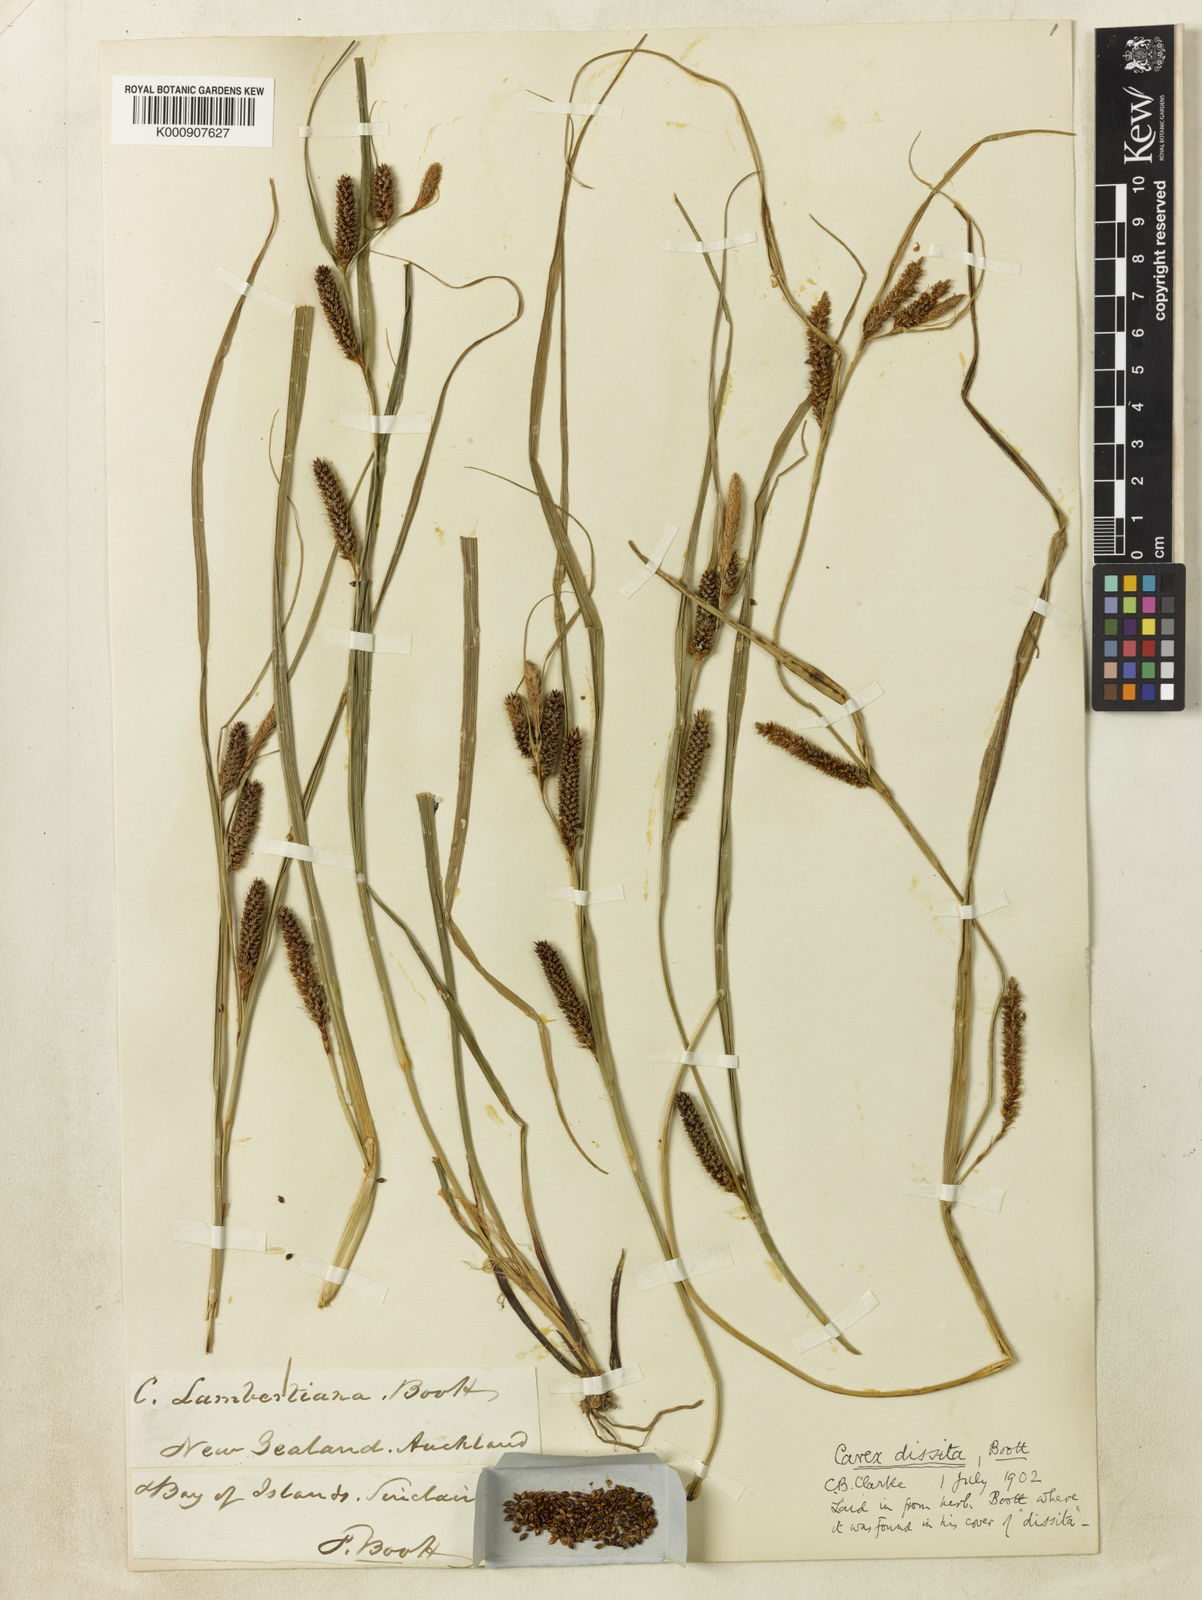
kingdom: Plantae
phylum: Tracheophyta
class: Liliopsida
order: Poales
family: Cyperaceae
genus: Carex
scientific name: Carex dissita
